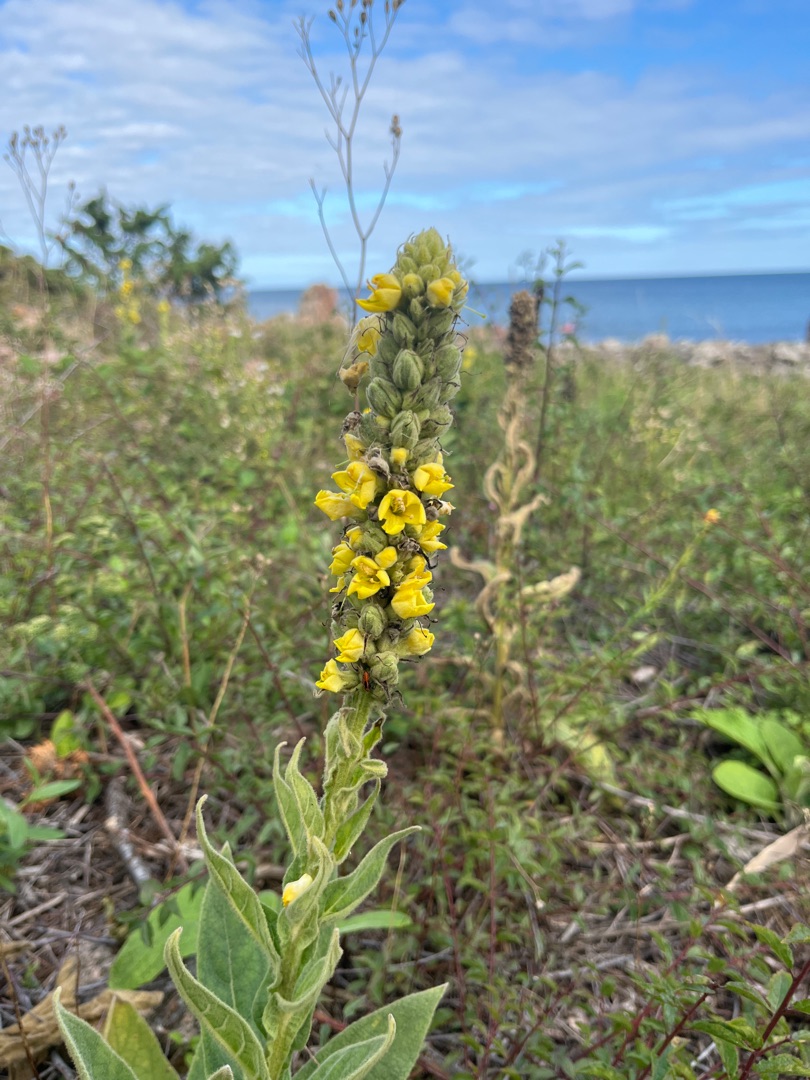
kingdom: Plantae
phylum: Tracheophyta
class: Magnoliopsida
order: Lamiales
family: Scrophulariaceae
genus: Verbascum
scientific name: Verbascum thapsus
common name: Filtbladet kongelys
